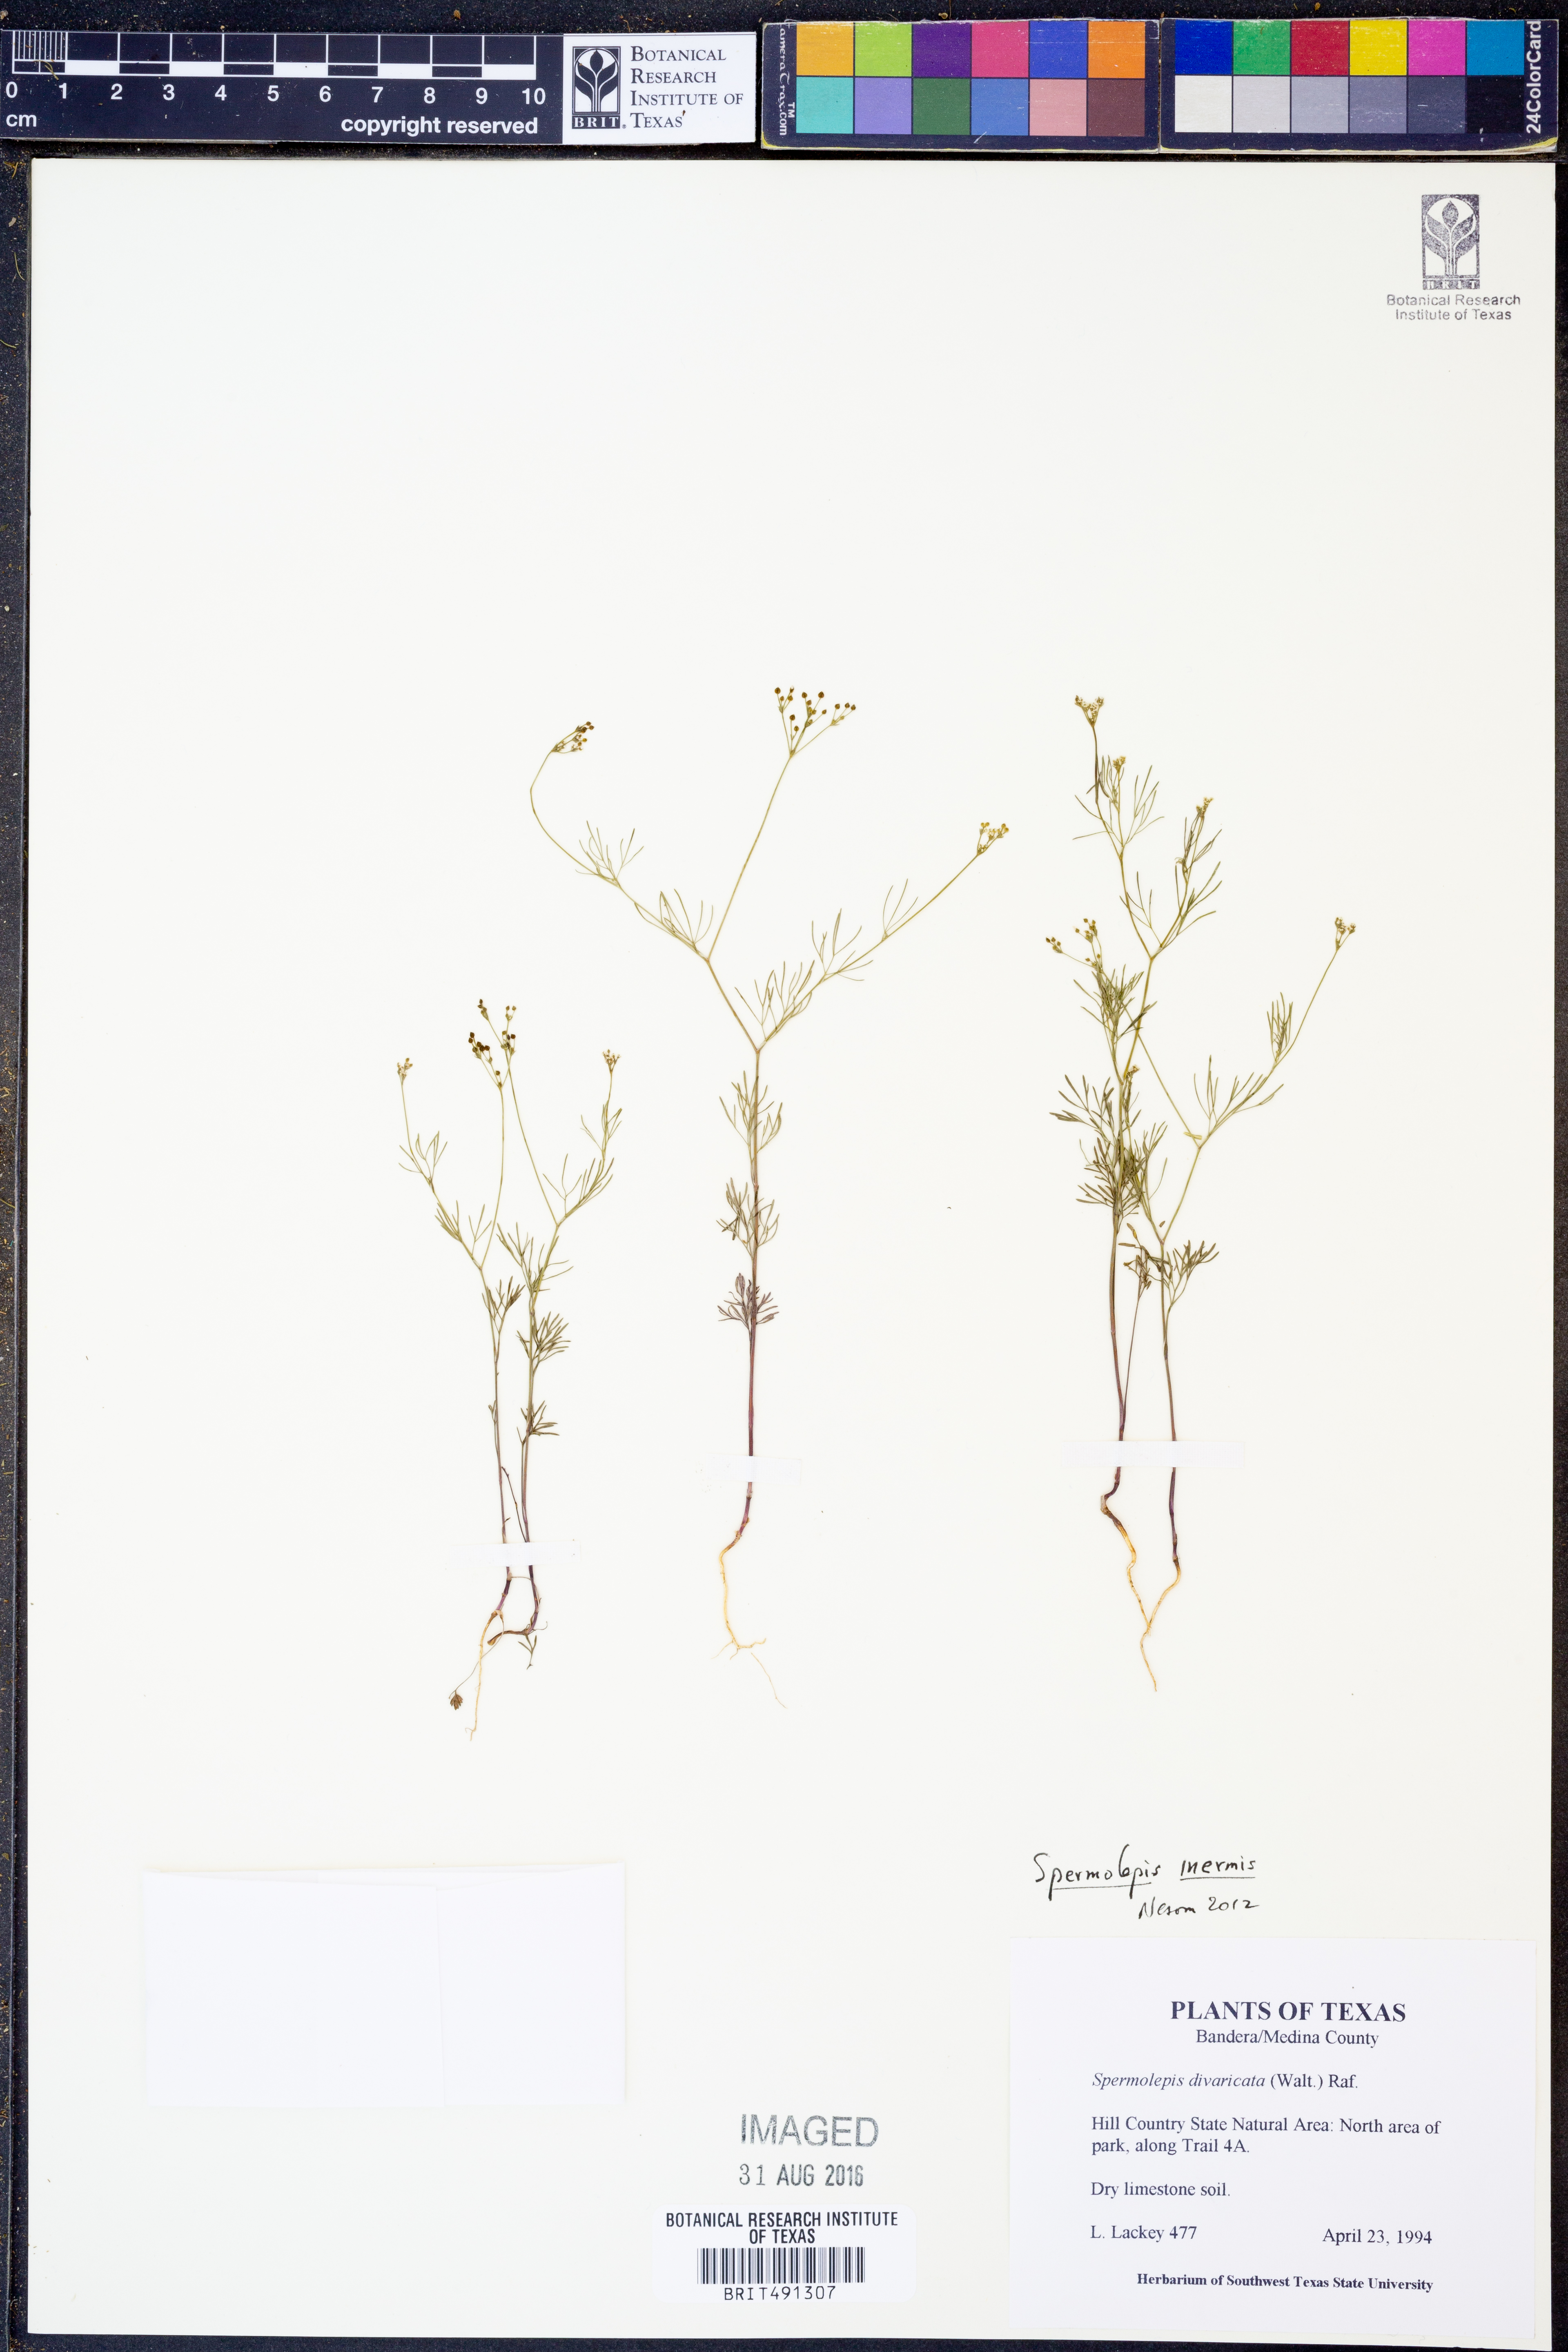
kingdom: Plantae
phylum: Tracheophyta
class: Magnoliopsida
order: Apiales
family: Apiaceae
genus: Spermolepis
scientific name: Spermolepis inermis
